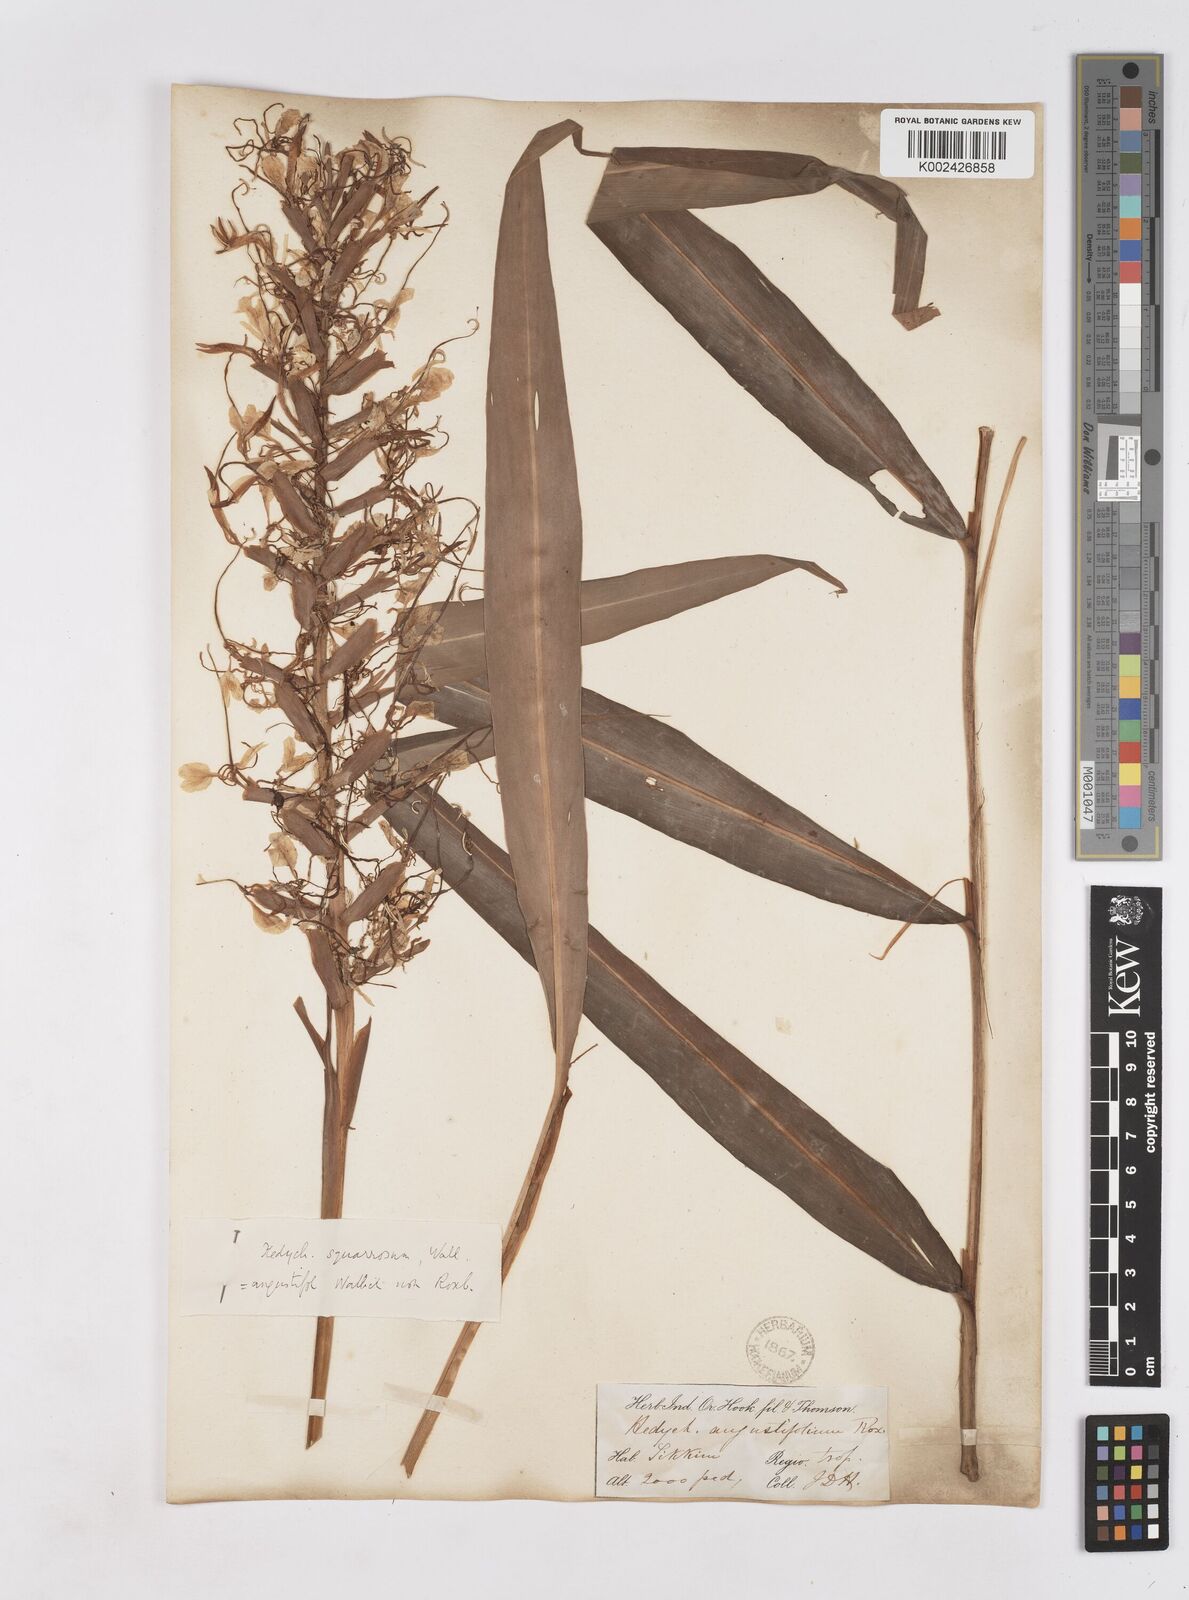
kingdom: Plantae
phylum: Tracheophyta
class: Liliopsida
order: Zingiberales
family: Zingiberaceae
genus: Hedychium
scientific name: Hedychium coccineum
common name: Red ginger-lily
